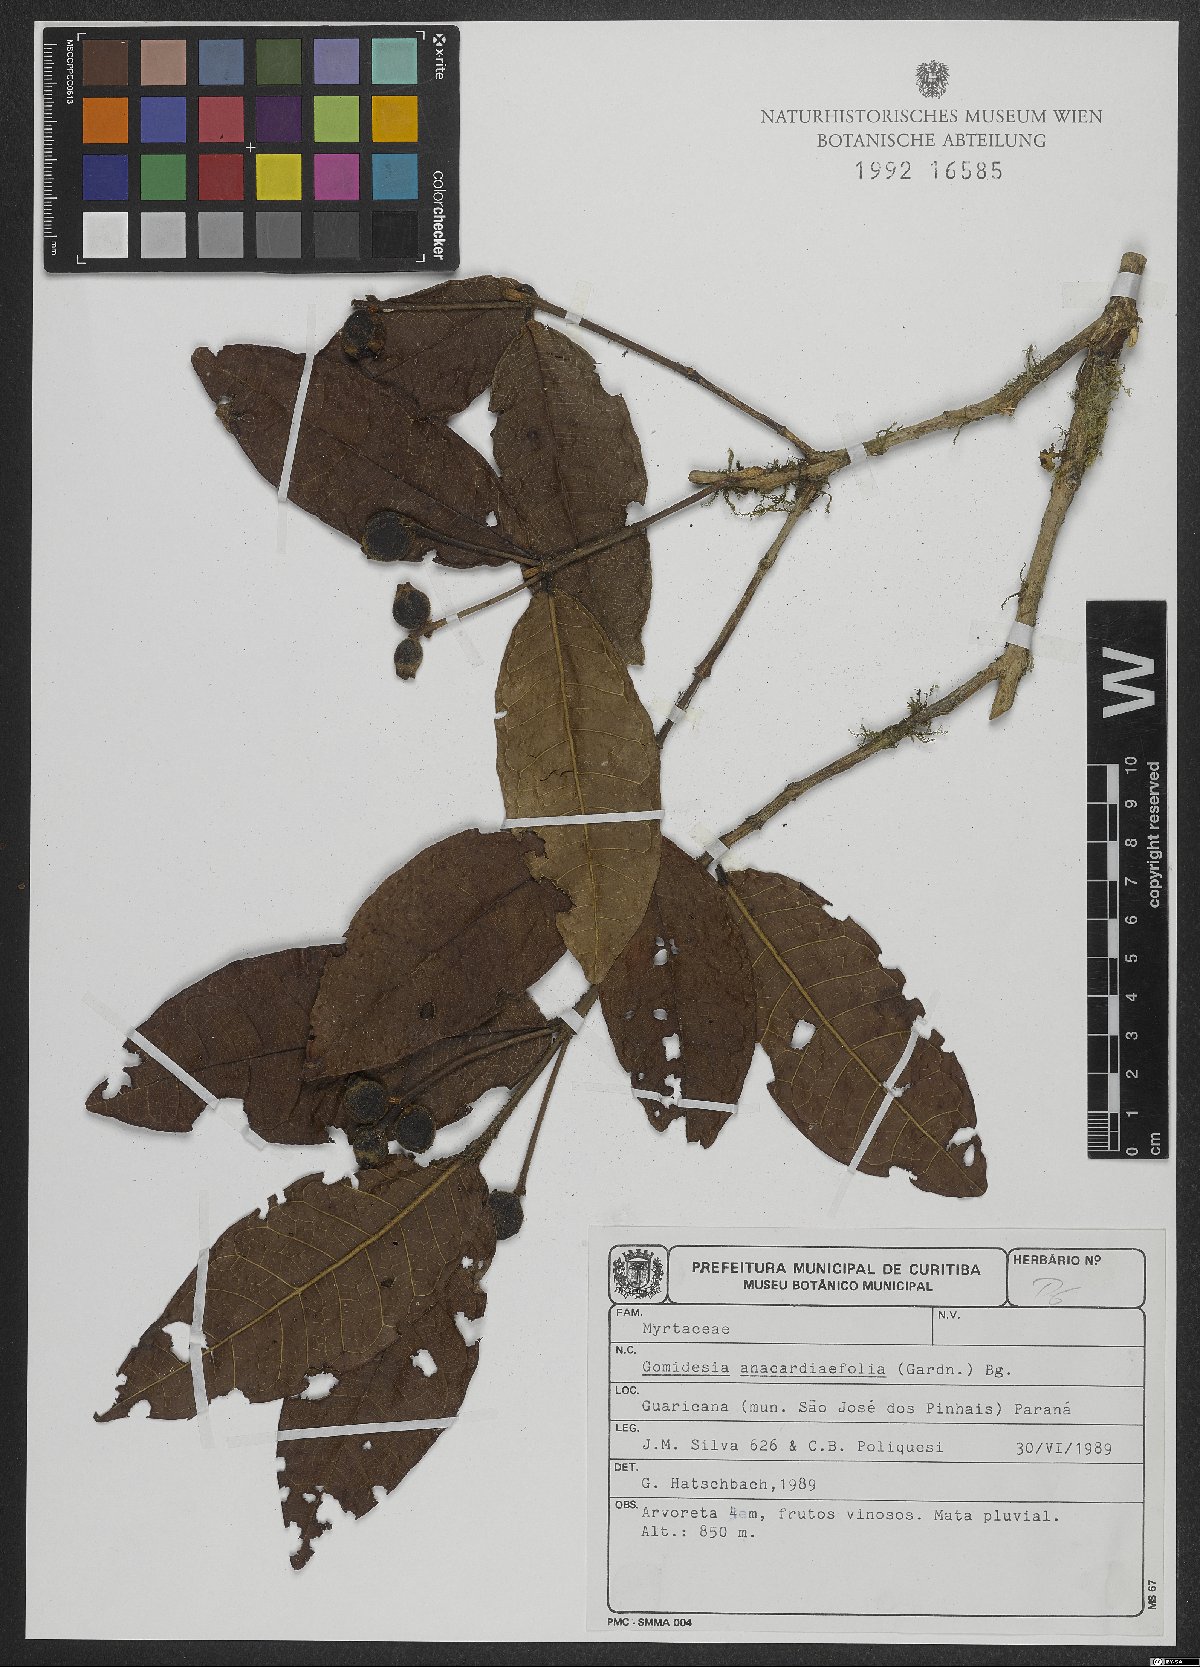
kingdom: Plantae
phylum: Tracheophyta
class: Magnoliopsida
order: Myrtales
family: Myrtaceae
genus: Myrcia
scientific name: Myrcia anacardiifolia
